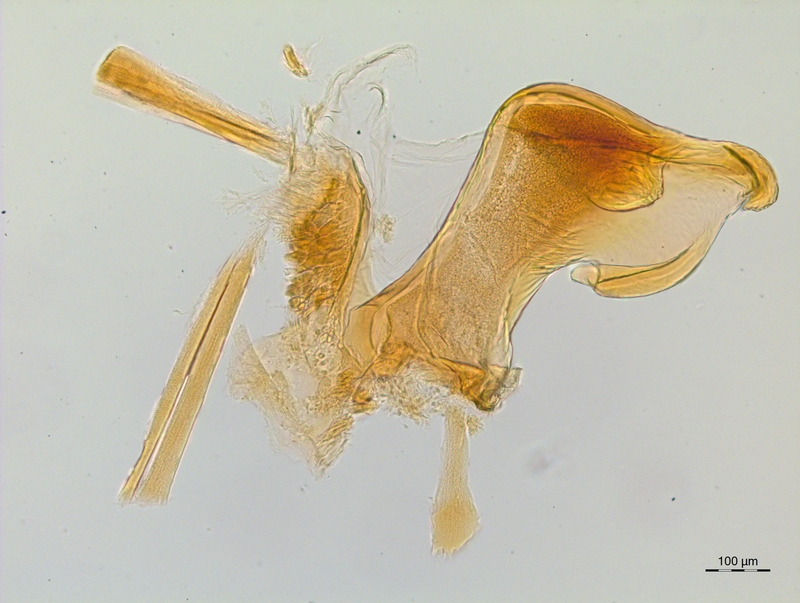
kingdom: Animalia
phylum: Arthropoda
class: Diplopoda
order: Chordeumatida
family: Craspedosomatidae
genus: Craspedosoma
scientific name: Craspedosoma slavum
